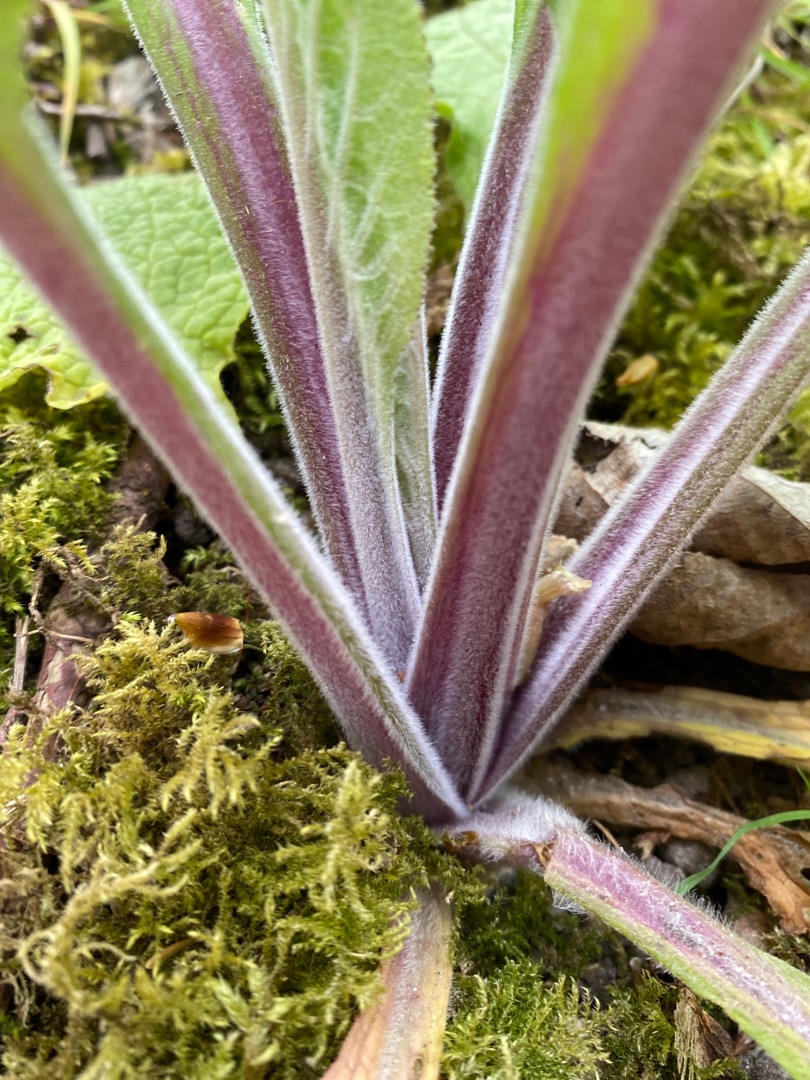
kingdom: Plantae
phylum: Tracheophyta
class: Magnoliopsida
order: Lamiales
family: Plantaginaceae
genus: Digitalis
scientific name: Digitalis purpurea
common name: Almindelig fingerbøl
